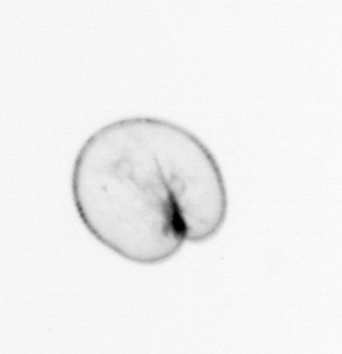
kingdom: Chromista
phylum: Myzozoa
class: Dinophyceae
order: Noctilucales
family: Noctilucaceae
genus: Noctiluca
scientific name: Noctiluca scintillans
